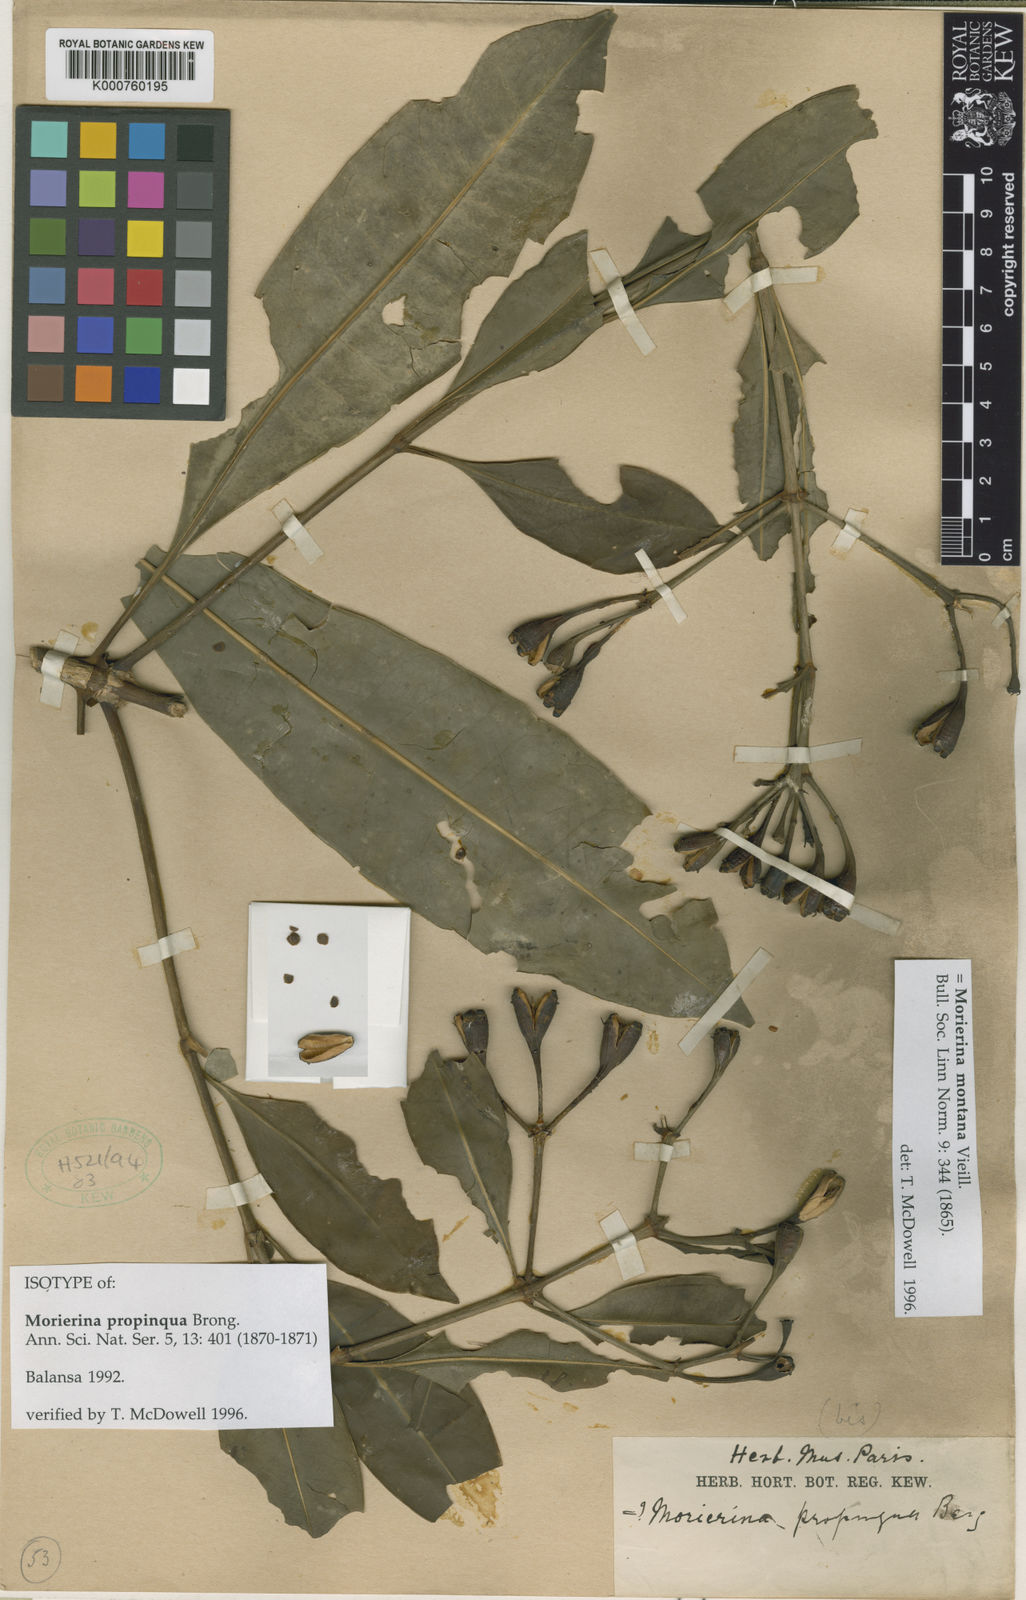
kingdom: Plantae
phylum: Tracheophyta
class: Magnoliopsida
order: Gentianales
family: Rubiaceae
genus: Thiollierea
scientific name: Thiollierea propinqua
